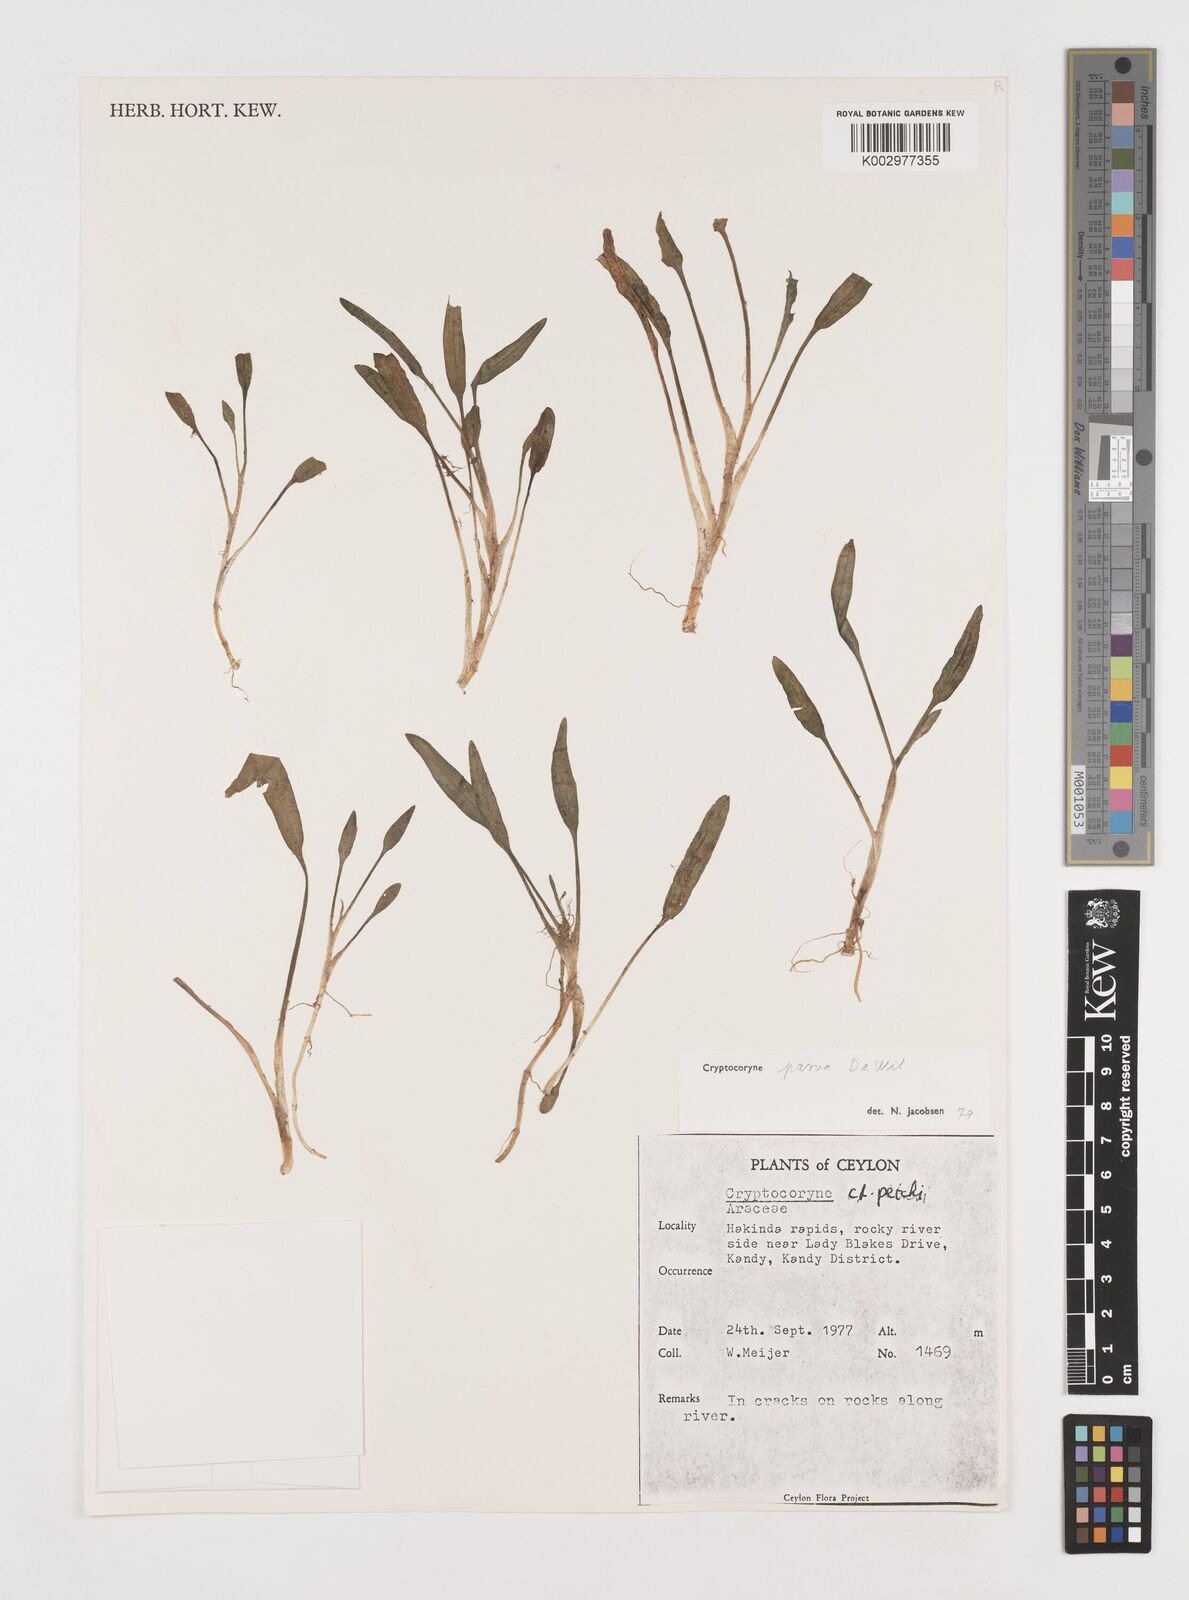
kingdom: Plantae
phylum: Tracheophyta
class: Liliopsida
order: Alismatales
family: Araceae
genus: Cryptocoryne
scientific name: Cryptocoryne parva
